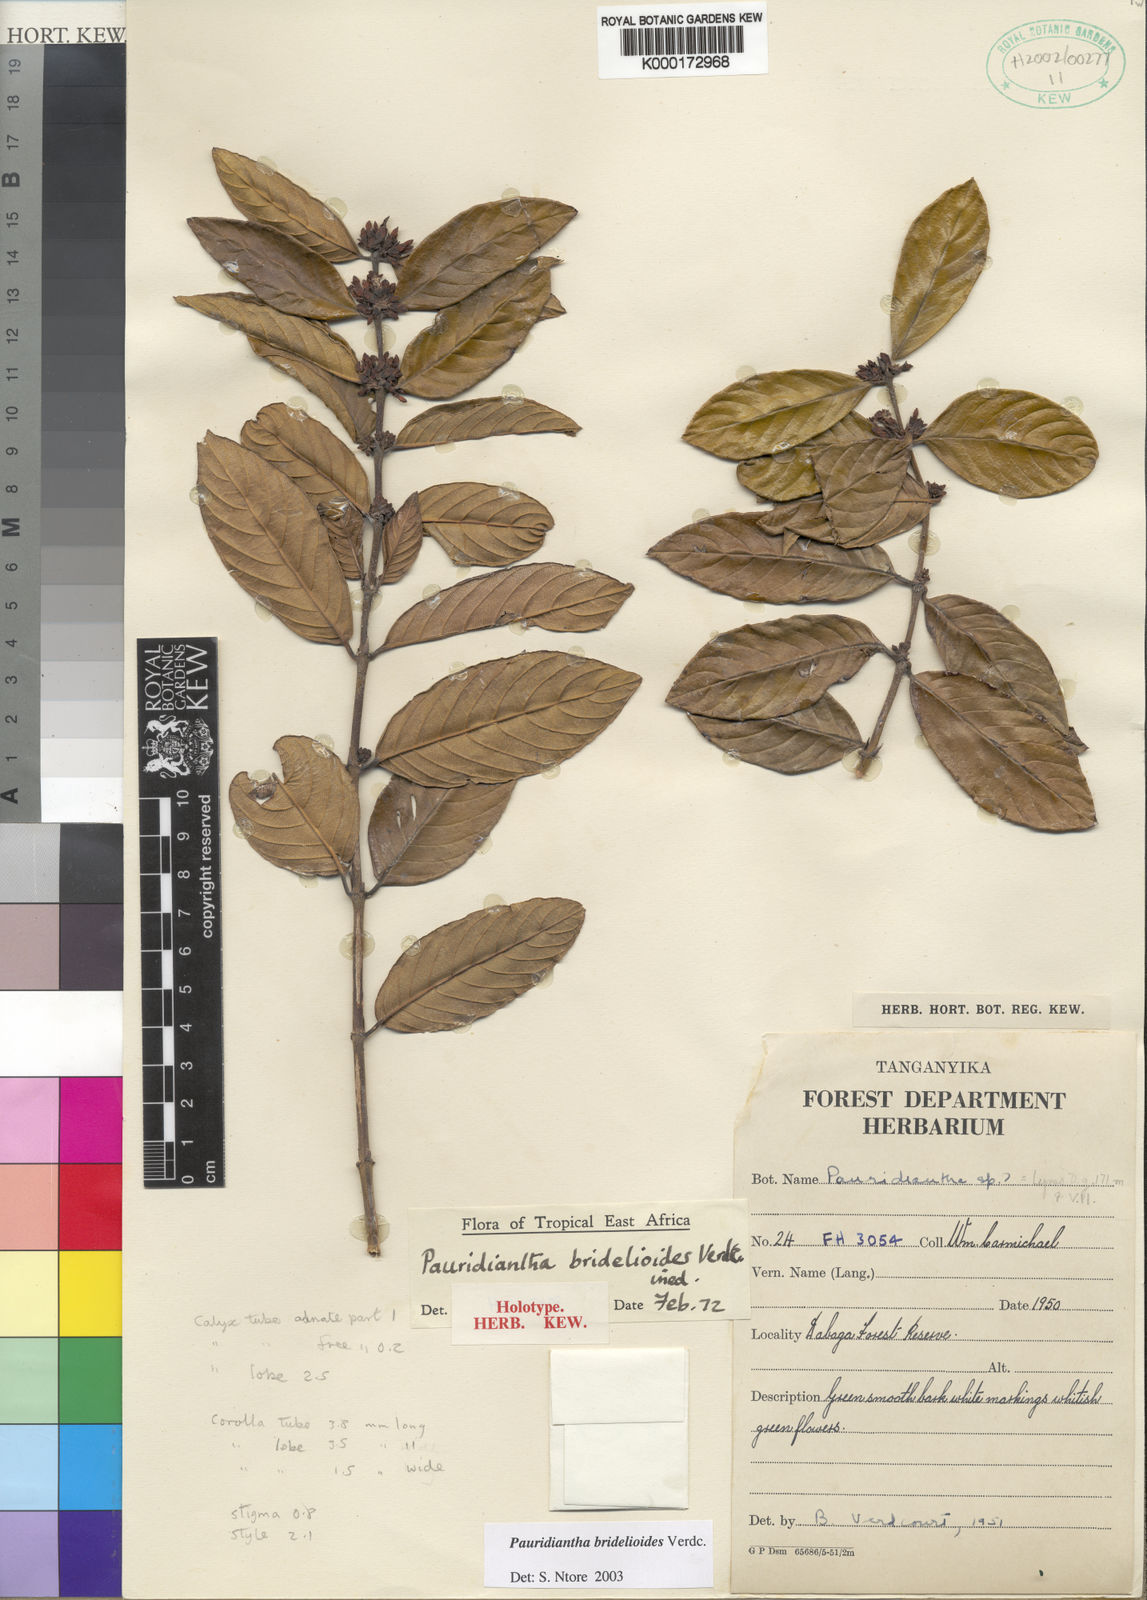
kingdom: Plantae
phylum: Tracheophyta
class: Magnoliopsida
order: Gentianales
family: Rubiaceae
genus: Pauridiantha
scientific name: Pauridiantha bridelioides
